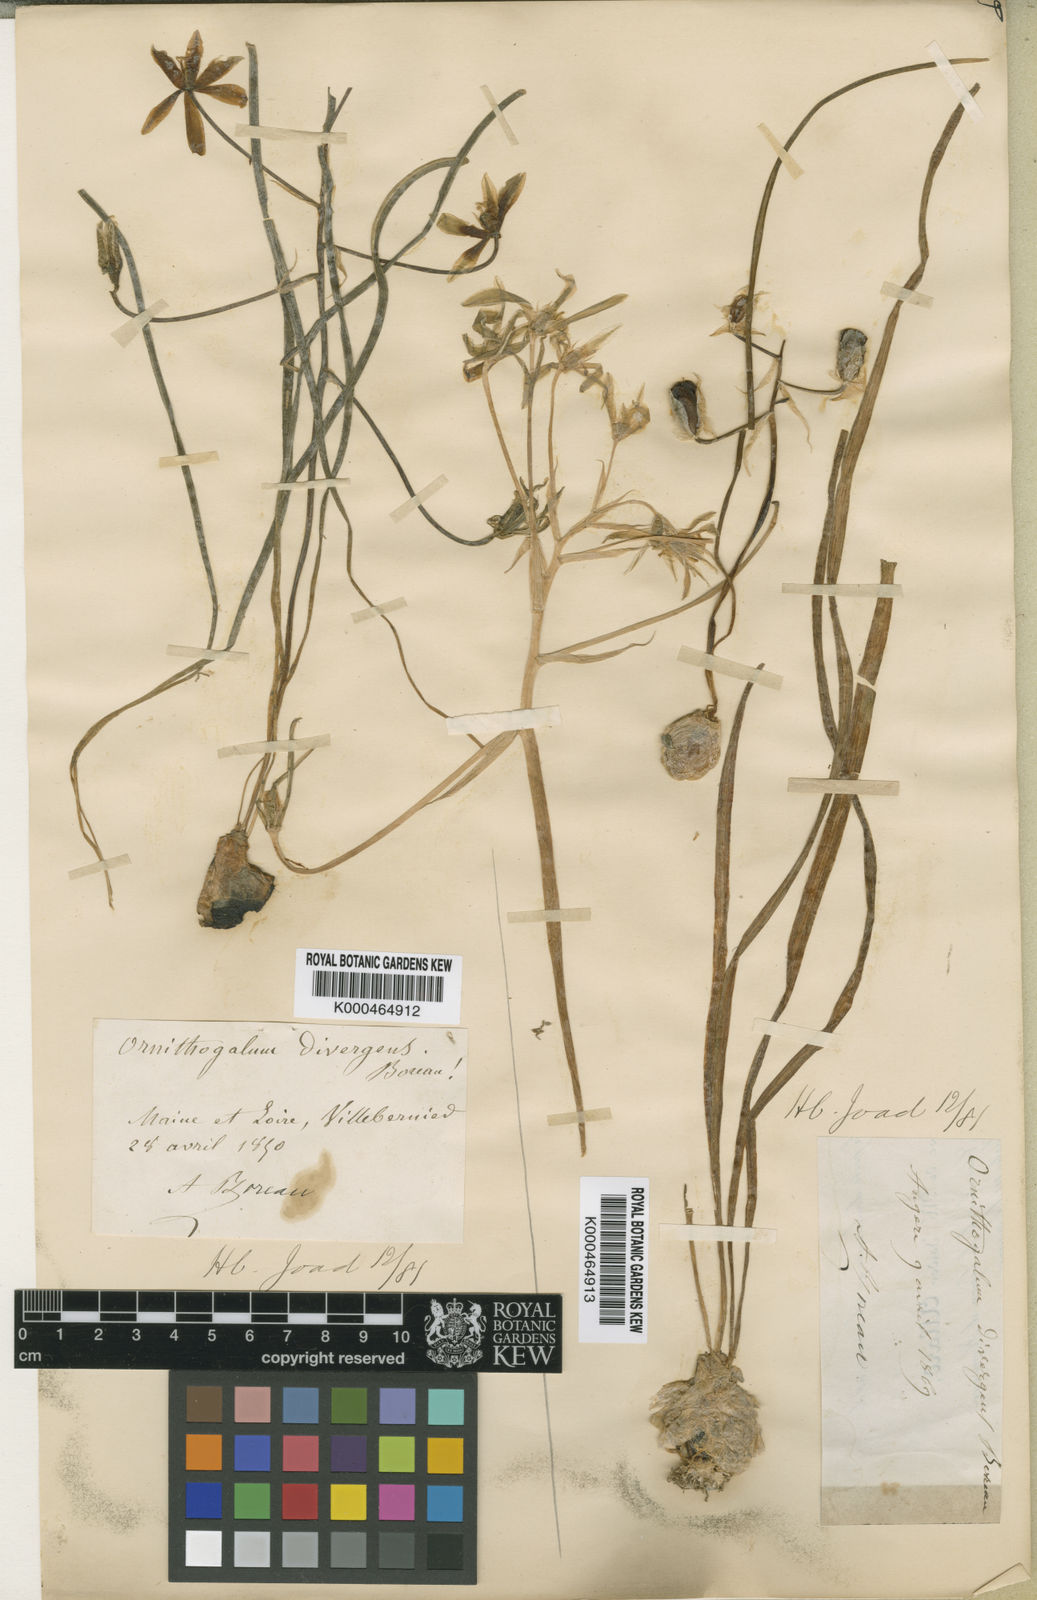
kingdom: Plantae
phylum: Tracheophyta
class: Liliopsida
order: Asparagales
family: Asparagaceae
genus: Ornithogalum
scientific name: Ornithogalum divergens
